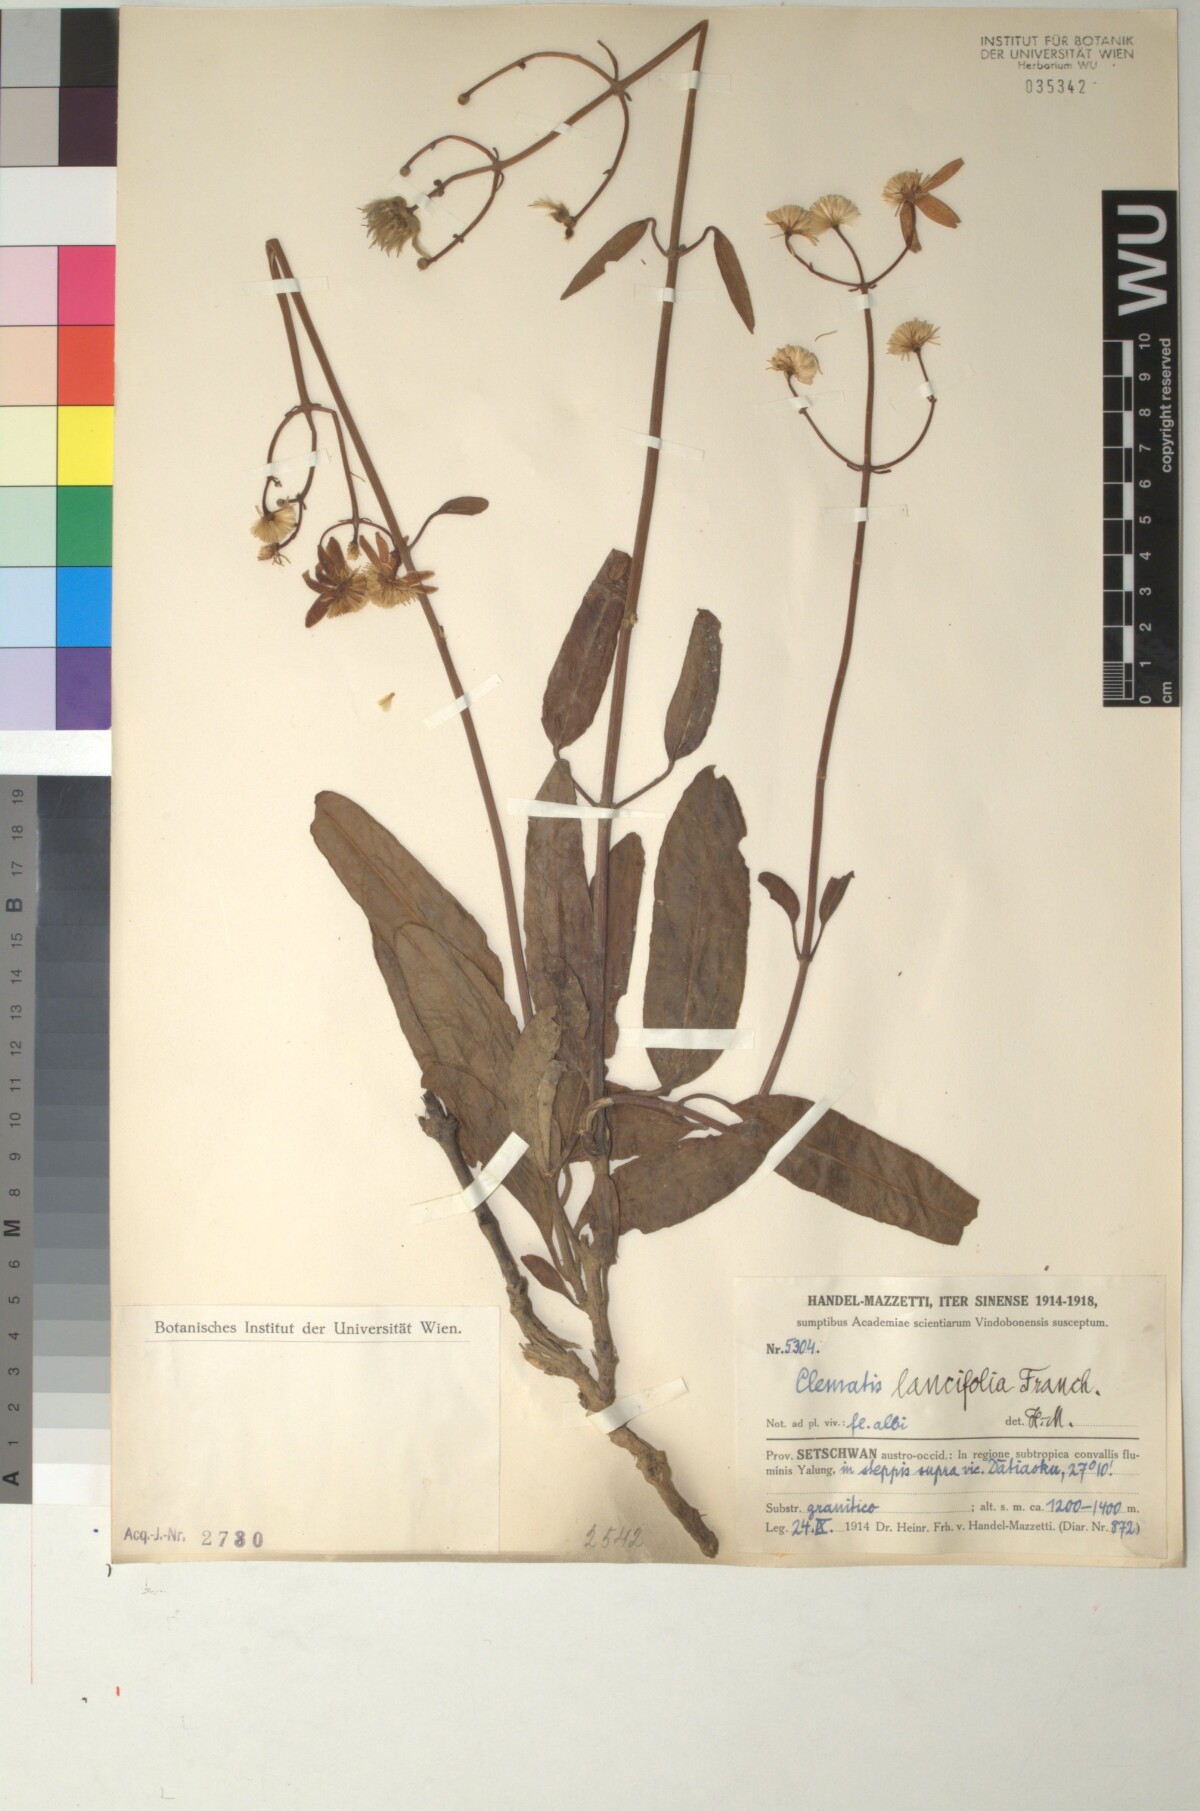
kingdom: Plantae
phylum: Tracheophyta
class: Magnoliopsida
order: Ranunculales
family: Ranunculaceae
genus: Clematis
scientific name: Clematis lancifolia
